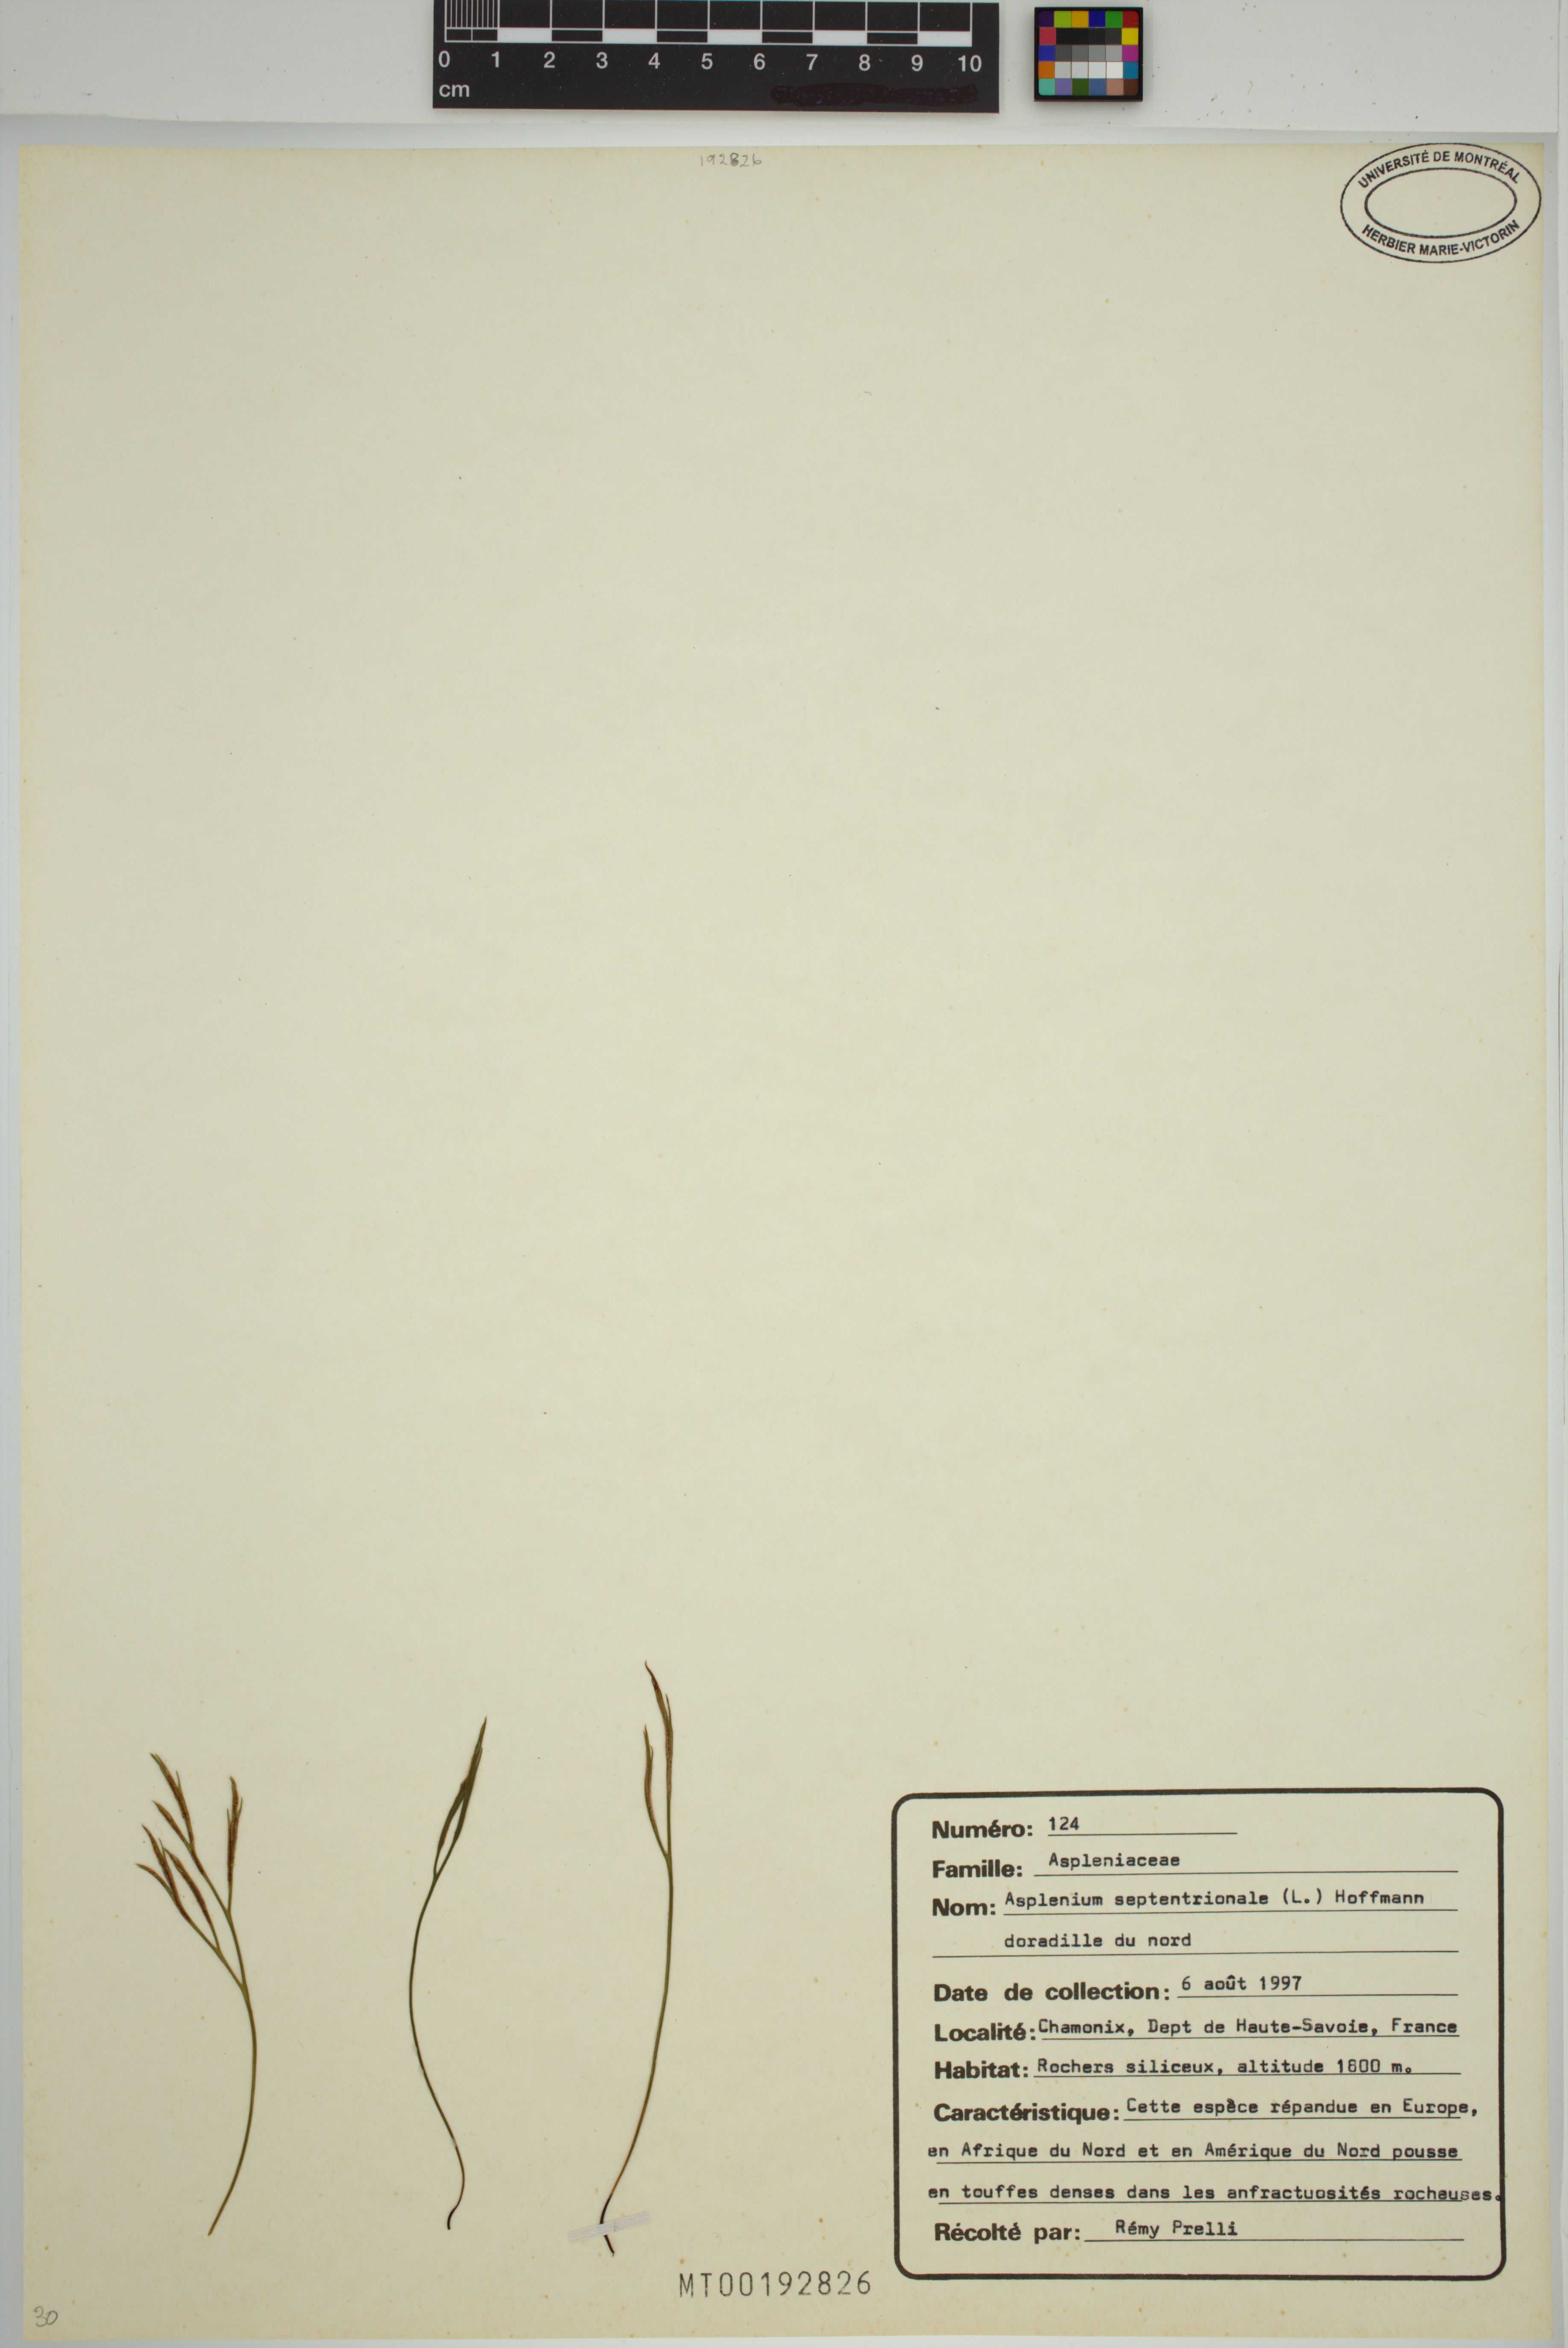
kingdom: Plantae
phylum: Tracheophyta
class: Polypodiopsida
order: Polypodiales
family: Aspleniaceae
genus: Asplenium
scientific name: Asplenium septentrionale
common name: Forked spleenwort
